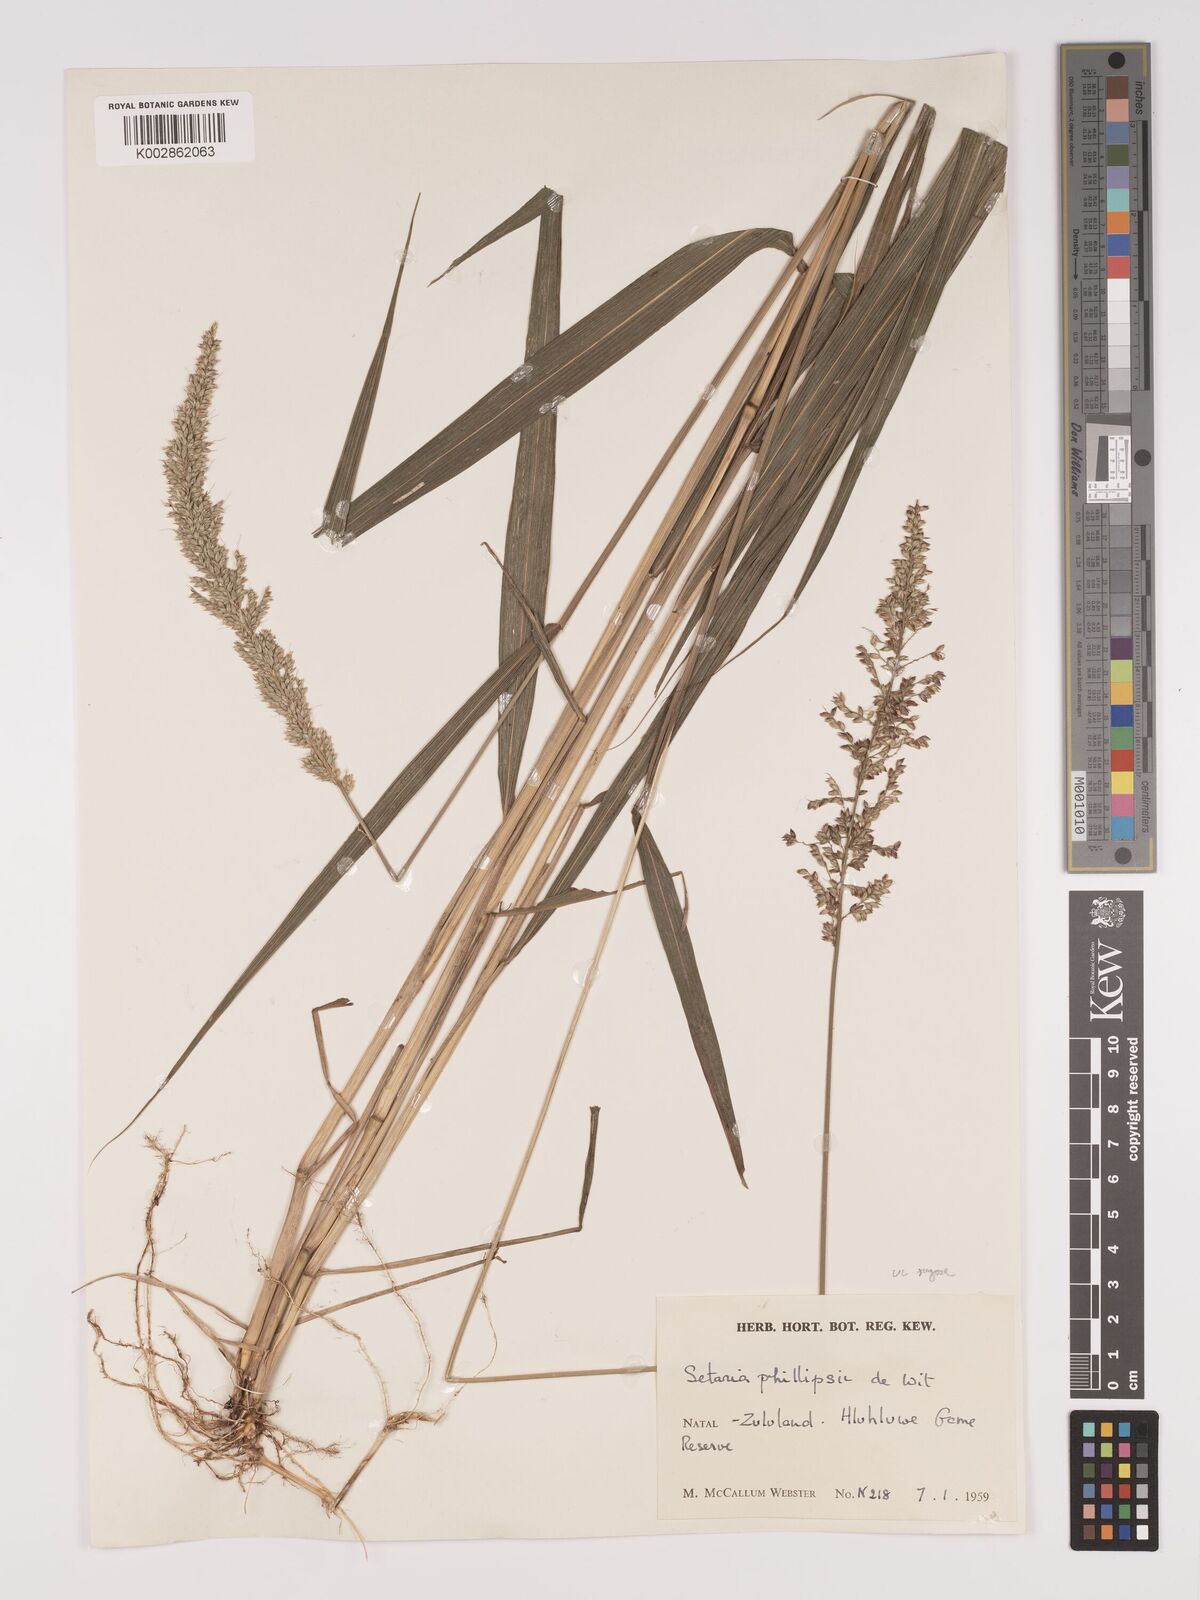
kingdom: Plantae
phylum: Tracheophyta
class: Liliopsida
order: Poales
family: Poaceae
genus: Setaria
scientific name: Setaria megaphylla
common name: Bigleaf bristlegrass
